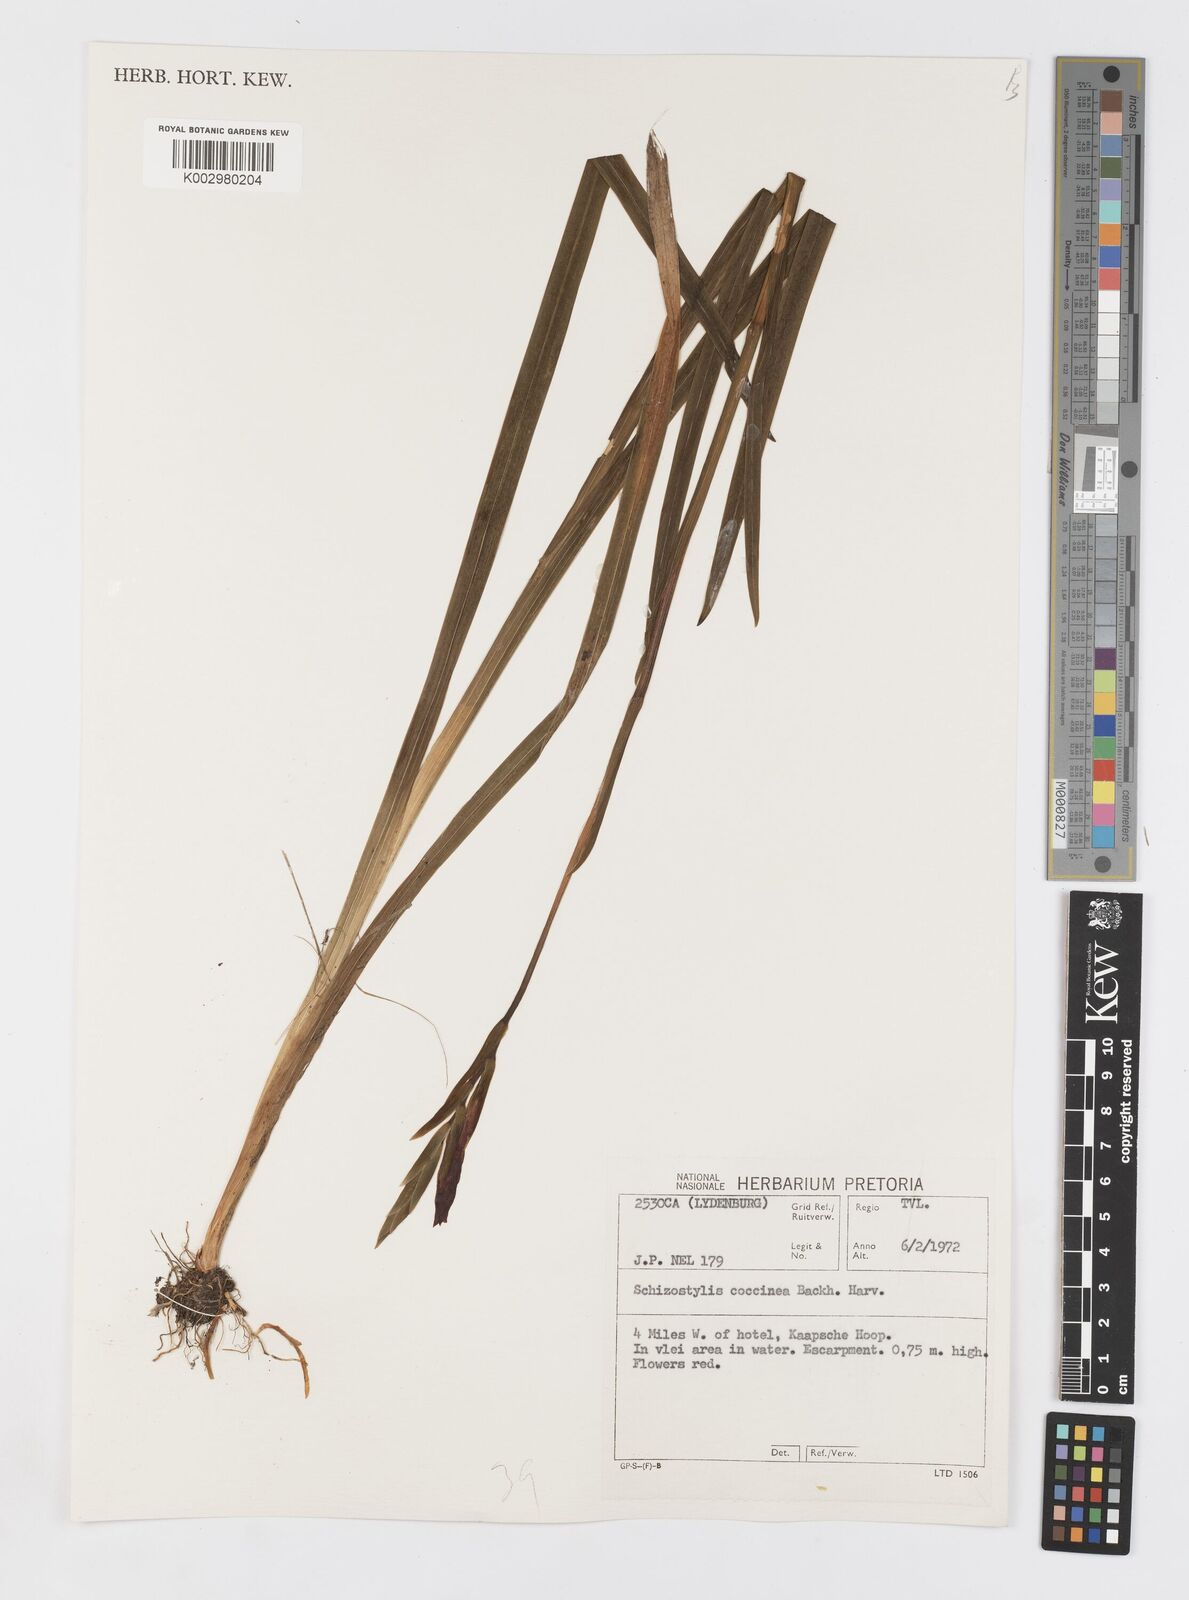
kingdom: Plantae
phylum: Tracheophyta
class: Liliopsida
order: Asparagales
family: Iridaceae
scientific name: Iridaceae
